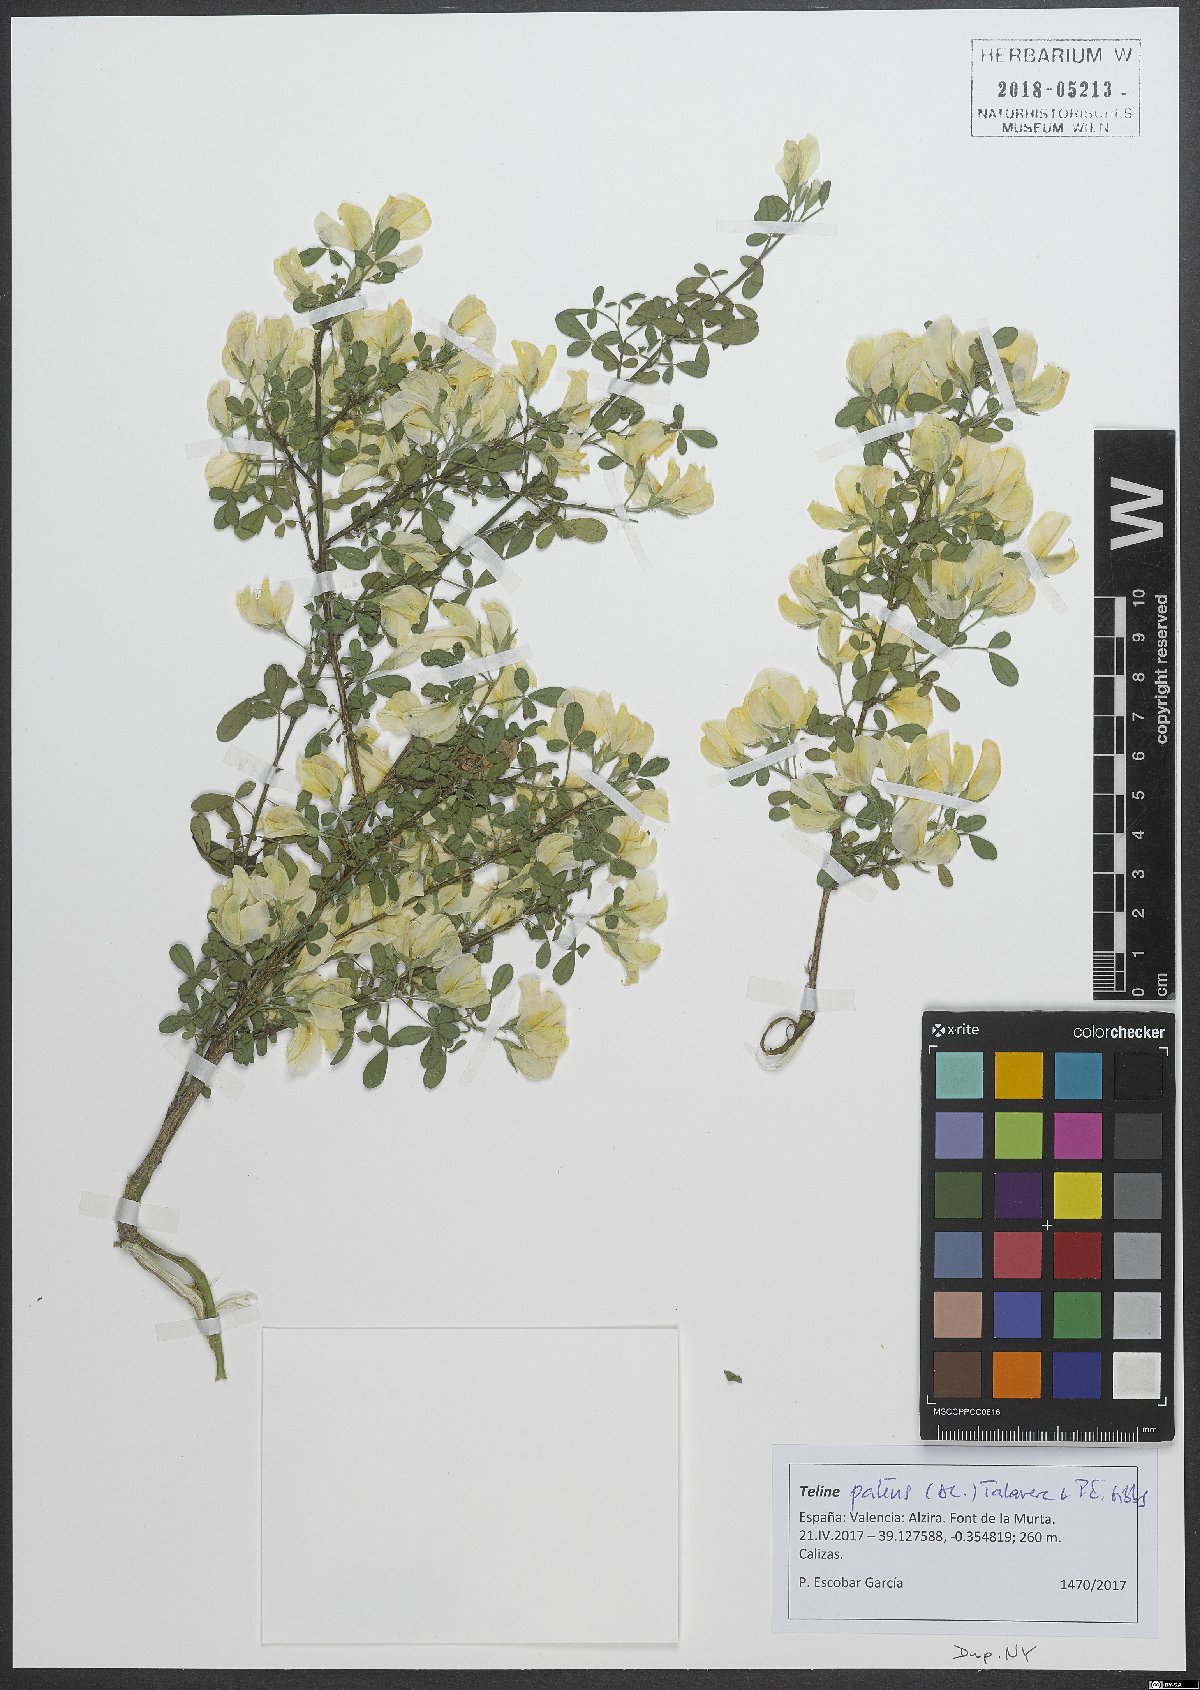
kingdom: Plantae
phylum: Tracheophyta
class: Magnoliopsida
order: Fabales
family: Fabaceae
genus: Genista
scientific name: Genista patens
